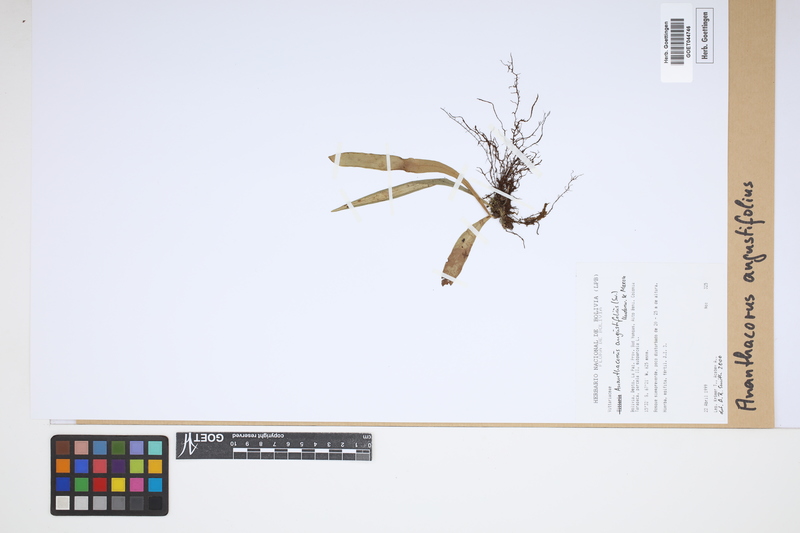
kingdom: Plantae
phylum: Tracheophyta
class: Polypodiopsida
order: Polypodiales
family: Pteridaceae
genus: Ananthacorus
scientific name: Ananthacorus angustifolius
